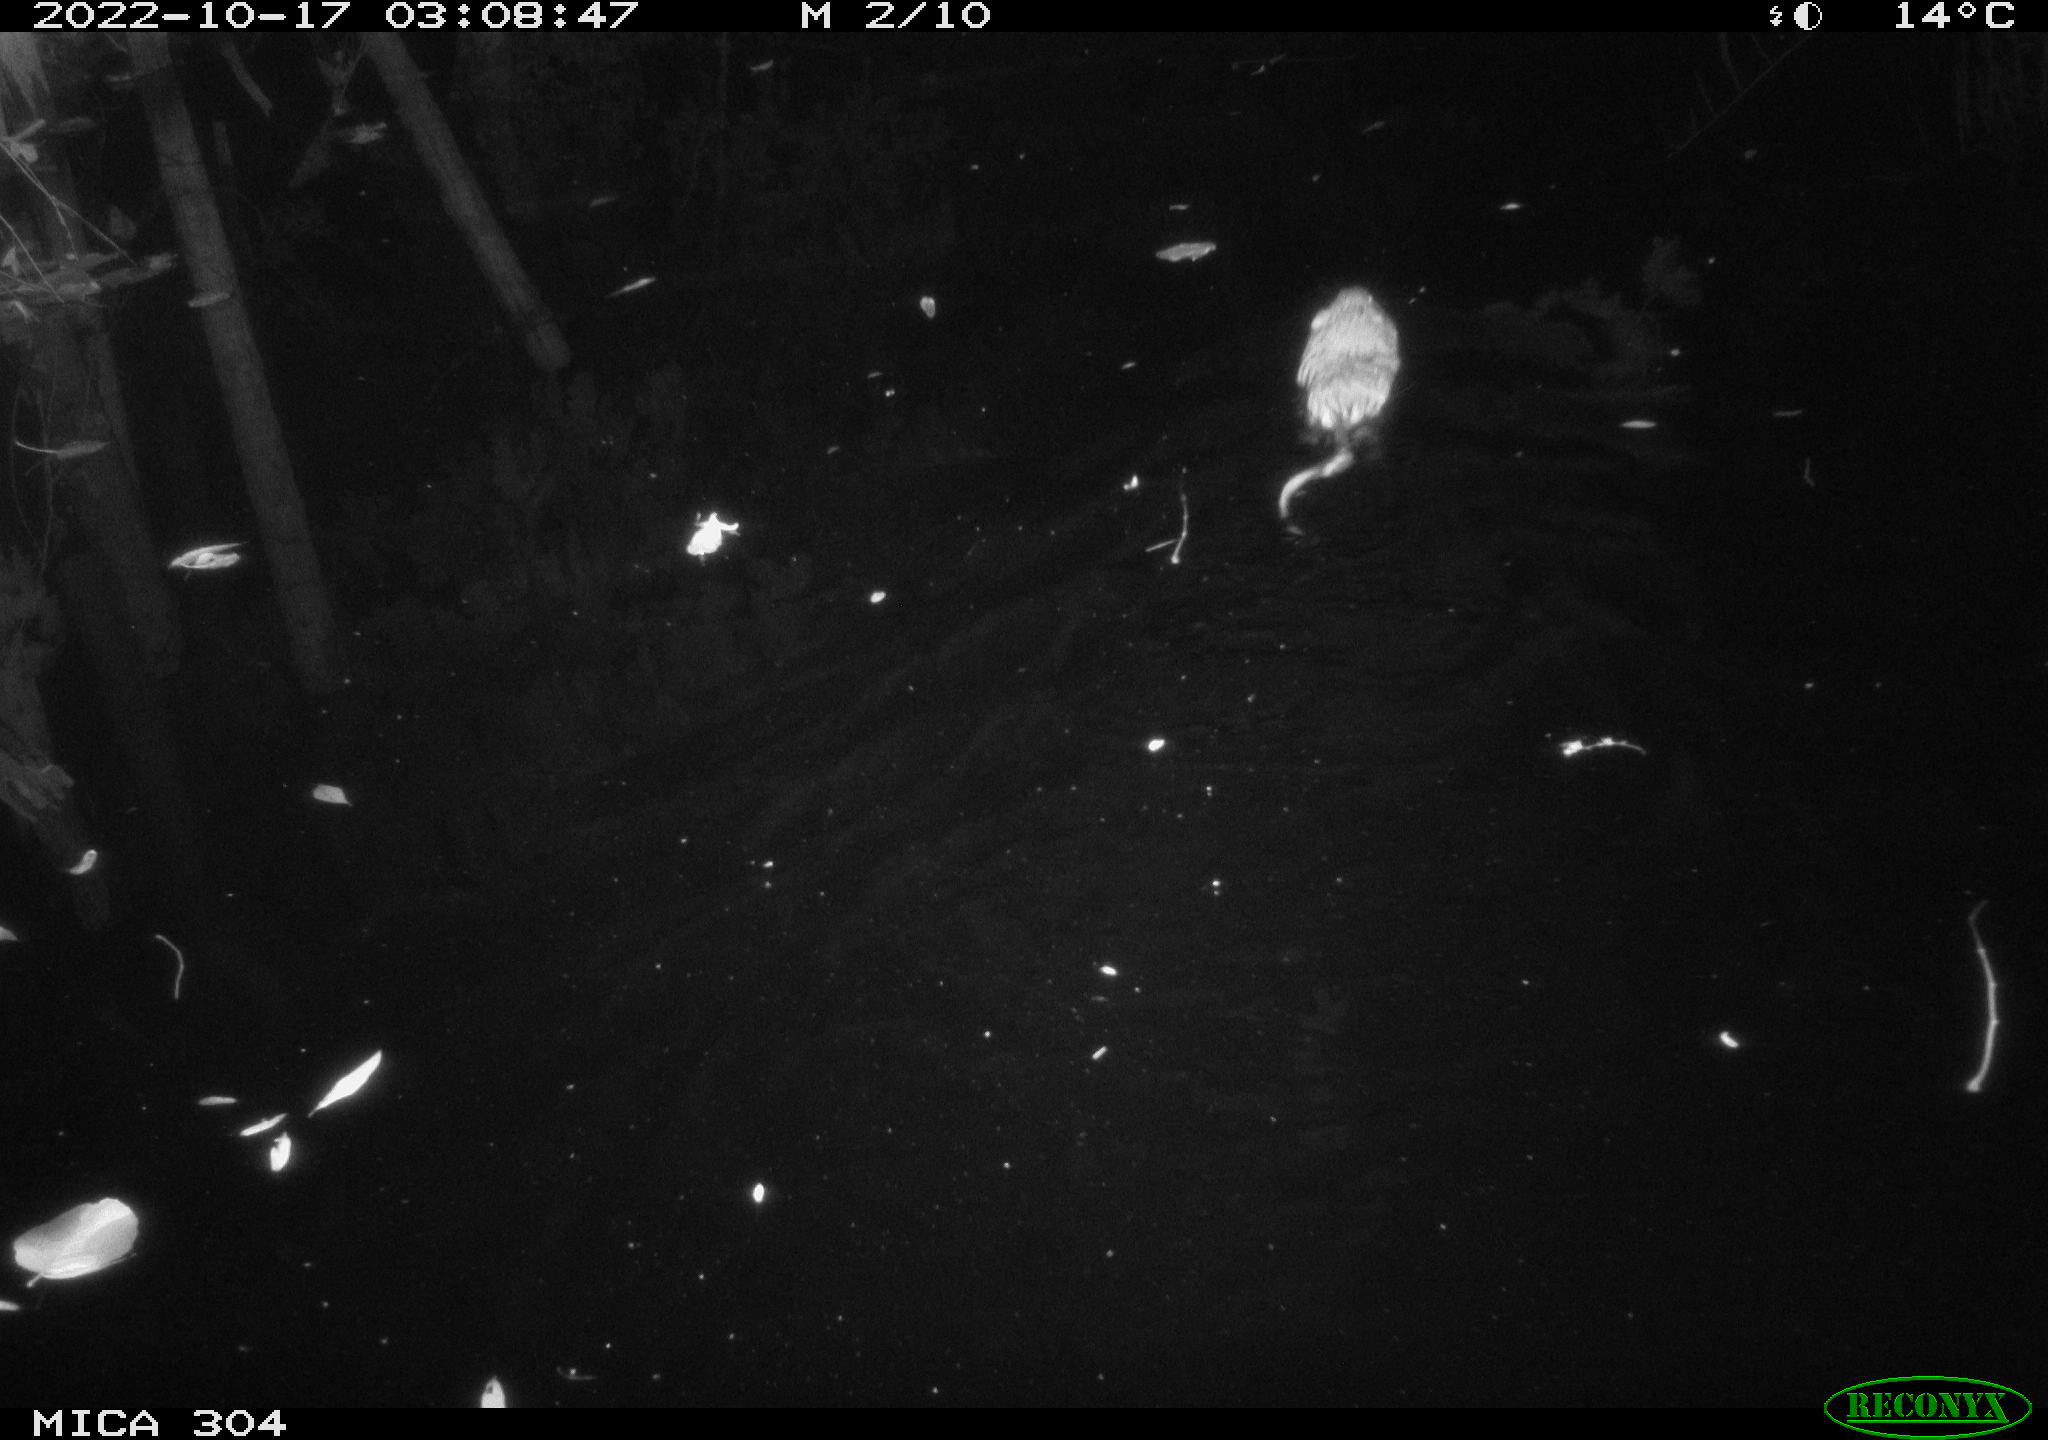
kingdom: Animalia
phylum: Chordata
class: Mammalia
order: Rodentia
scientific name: Rodentia
